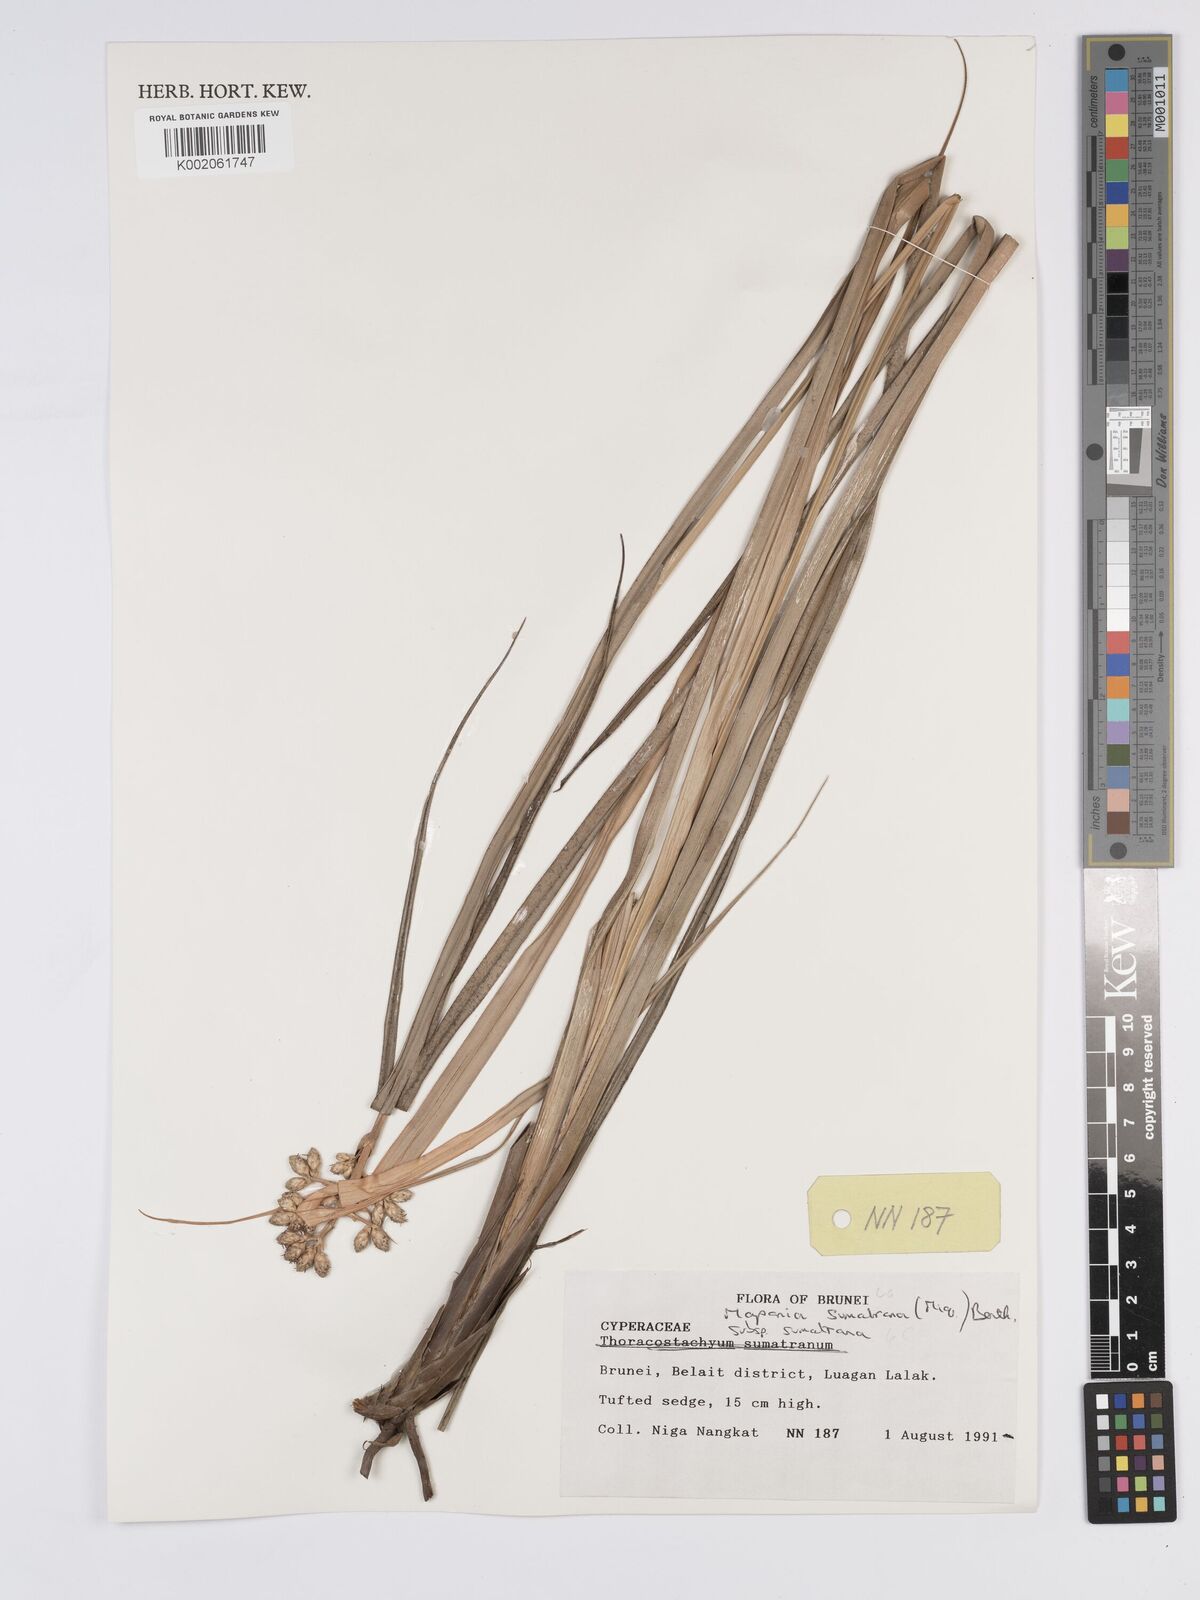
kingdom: Plantae
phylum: Tracheophyta
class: Liliopsida
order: Poales
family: Cyperaceae
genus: Mapania
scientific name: Mapania sumatrana
